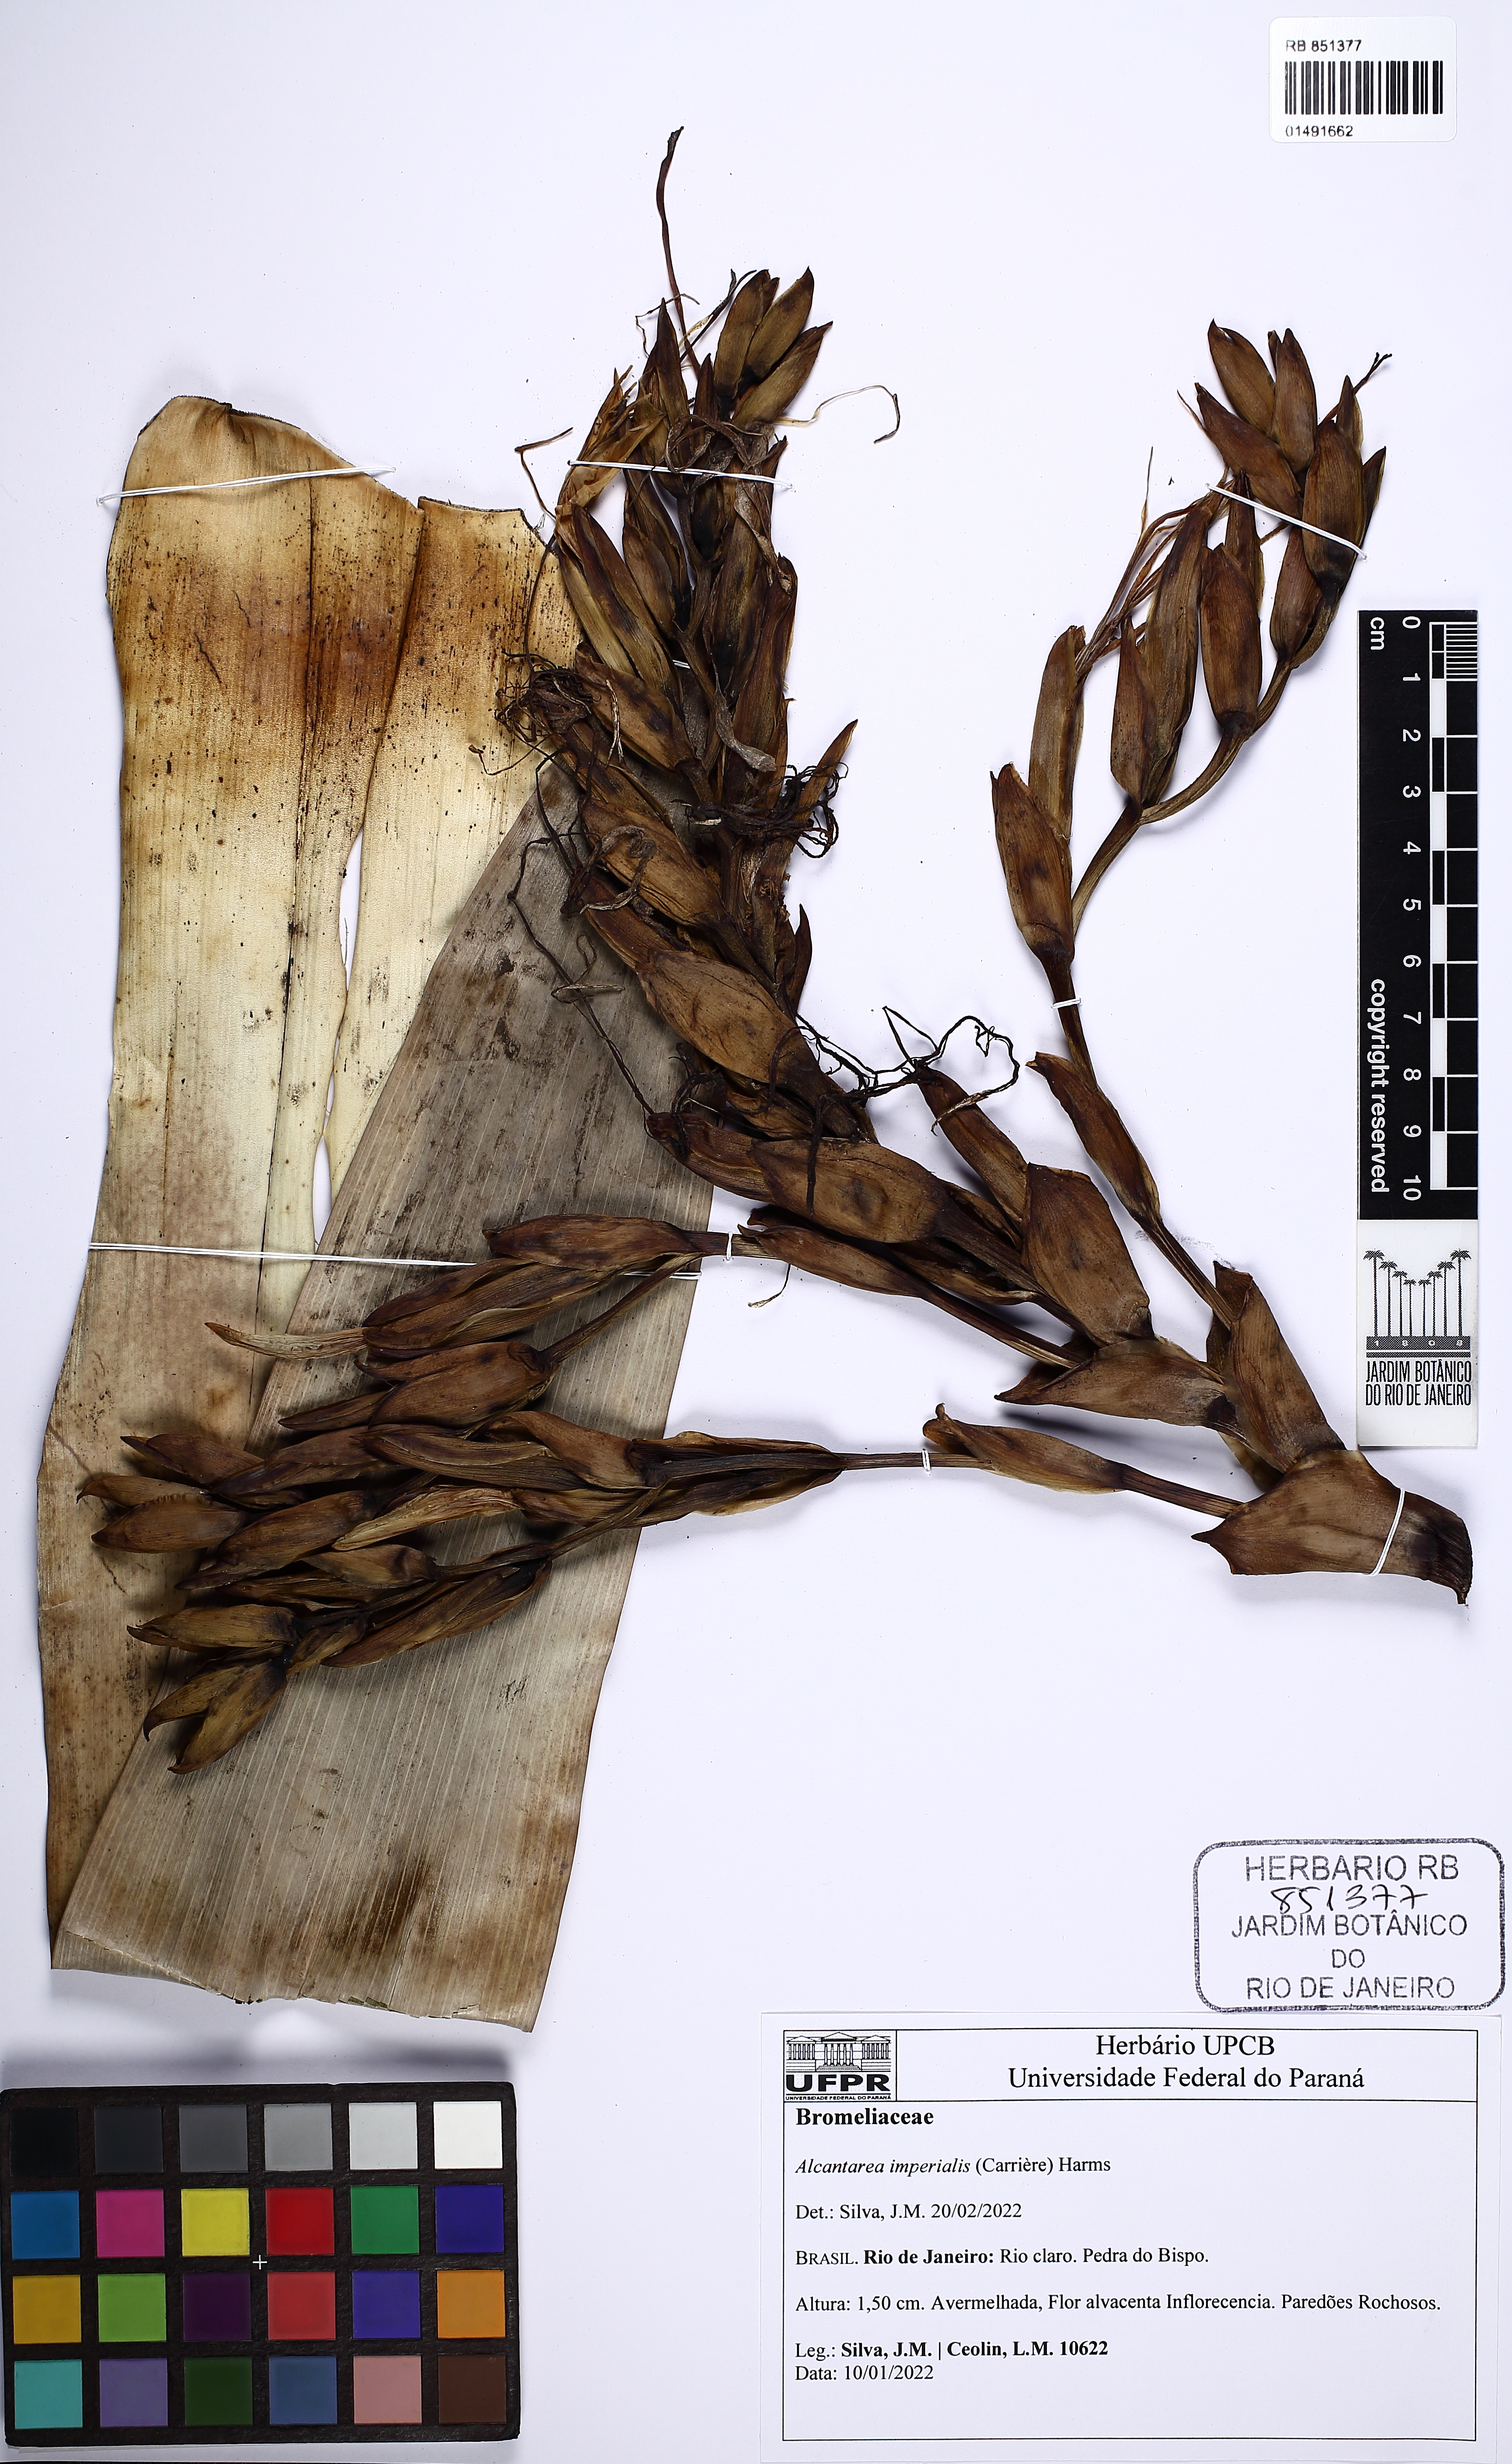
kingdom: Plantae
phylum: Tracheophyta
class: Liliopsida
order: Poales
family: Bromeliaceae
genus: Alcantarea
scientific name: Alcantarea imperialis
